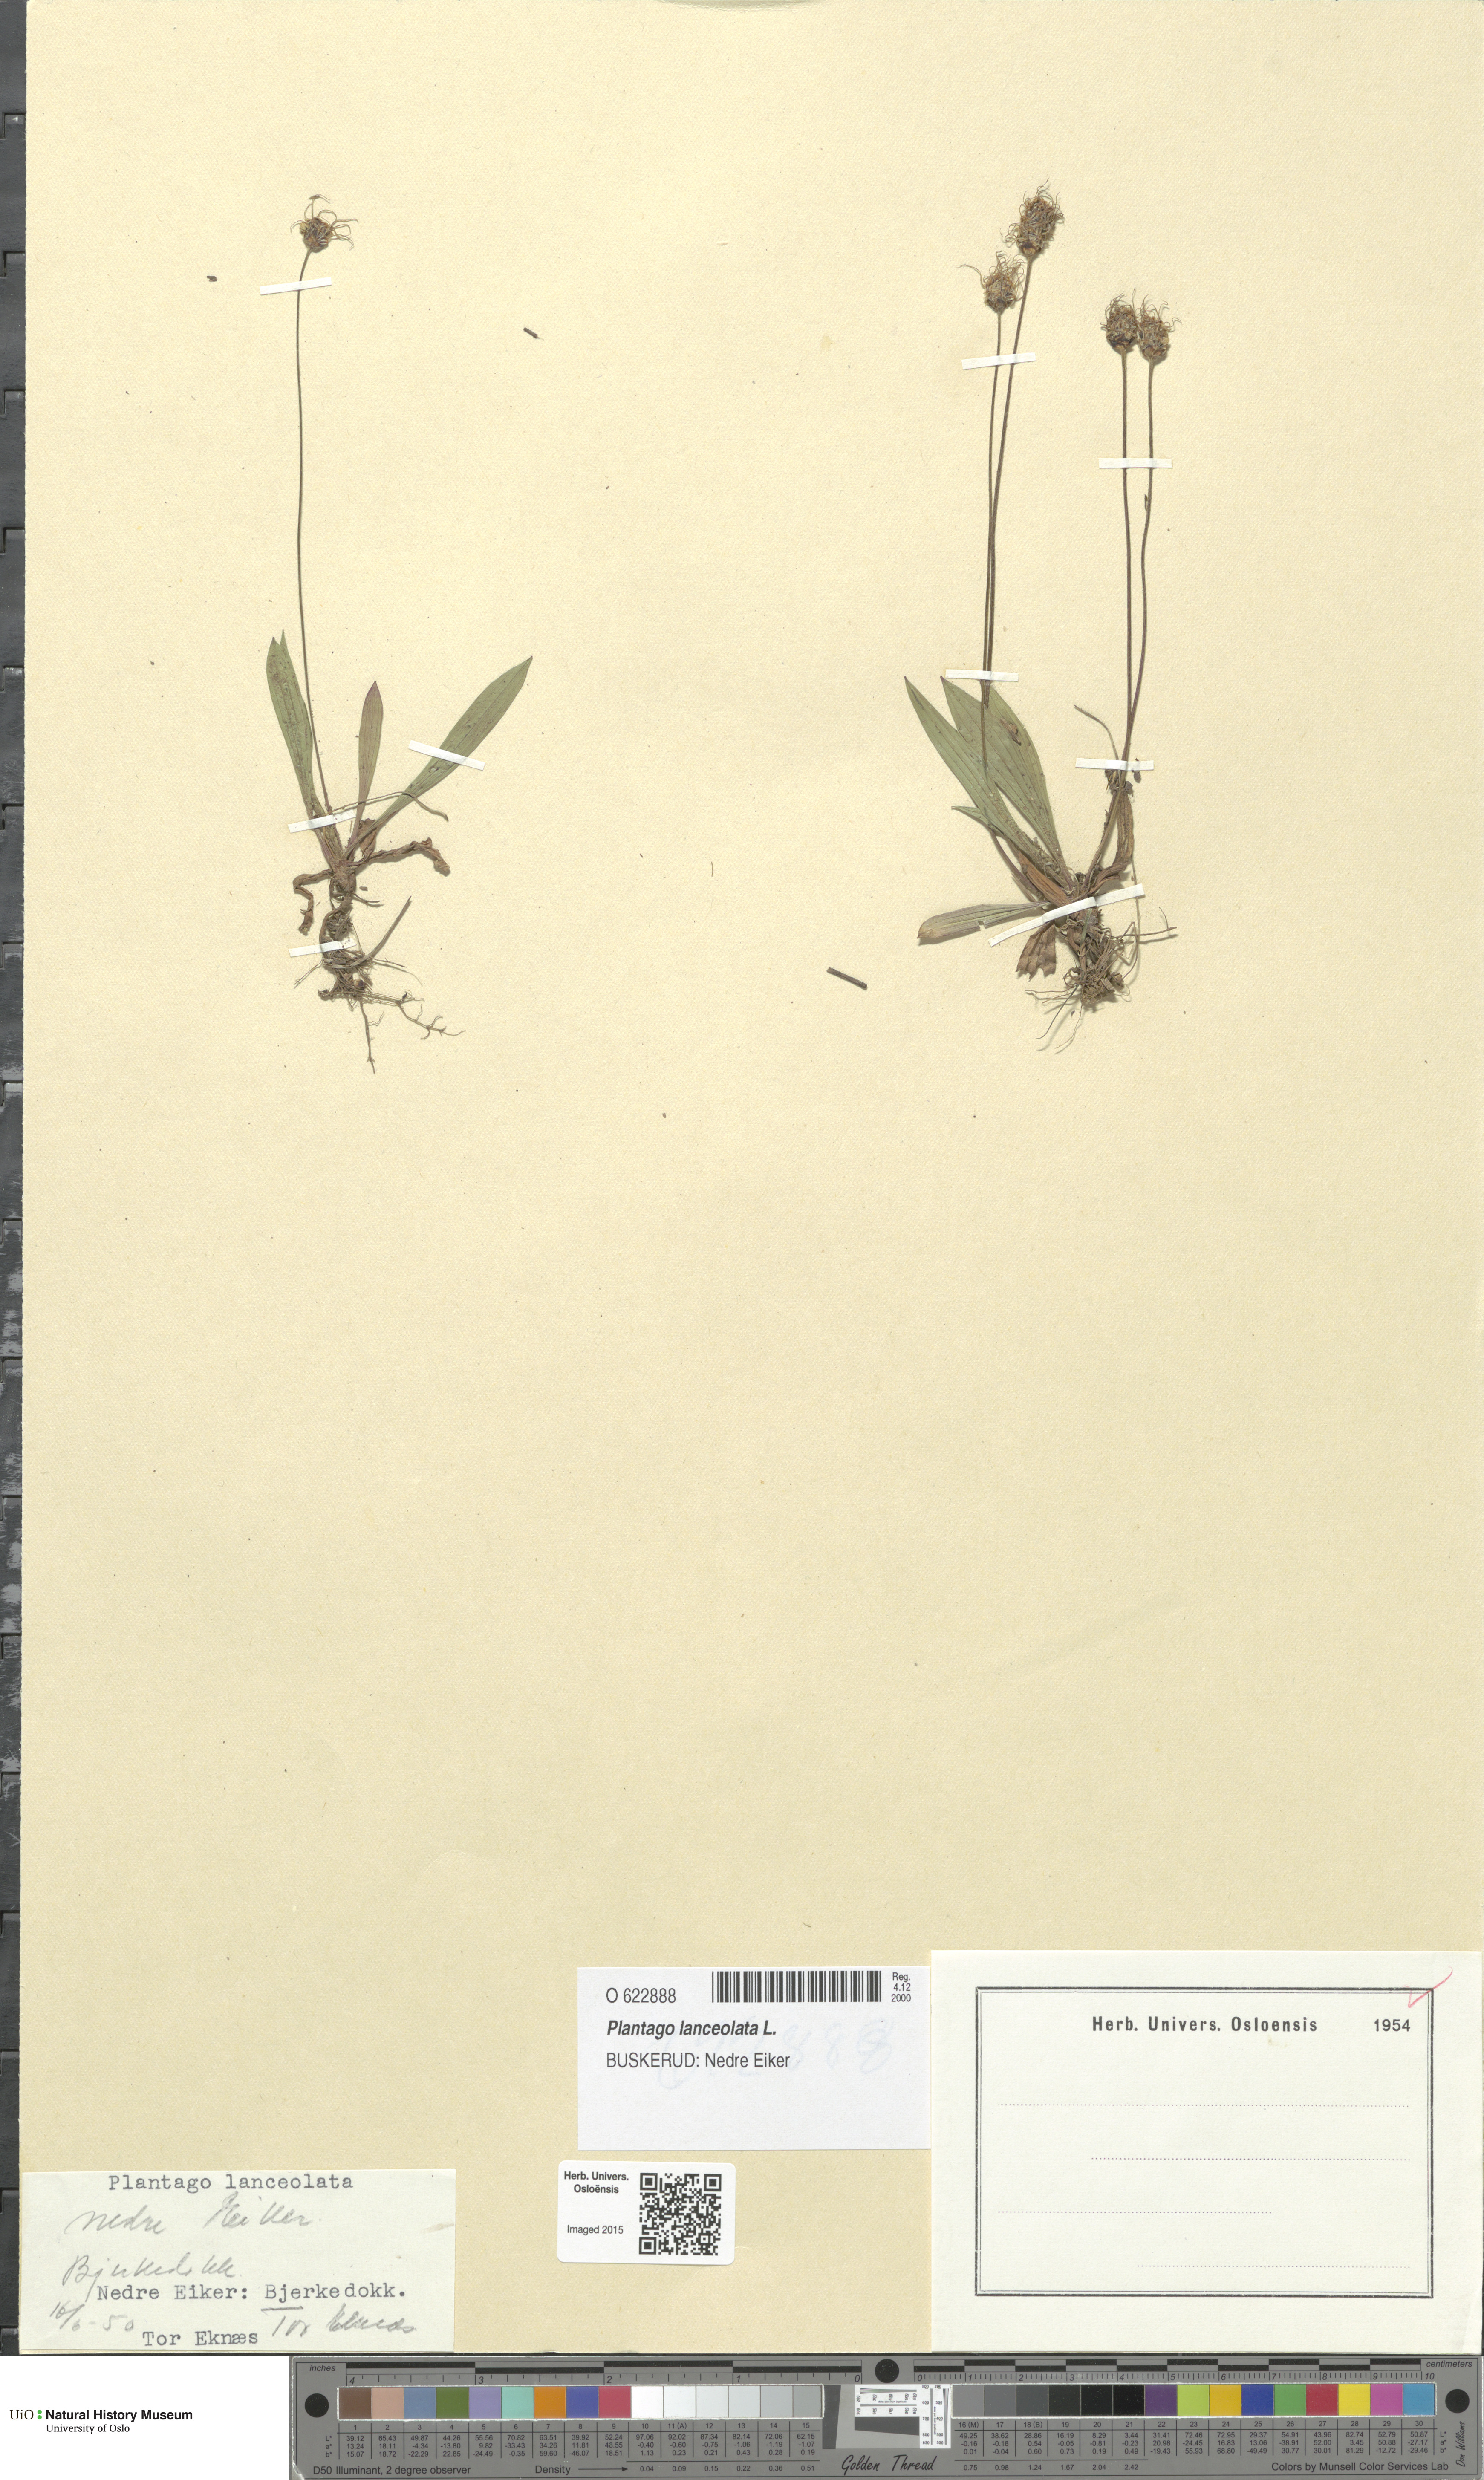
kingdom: Plantae
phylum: Tracheophyta
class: Magnoliopsida
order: Lamiales
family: Plantaginaceae
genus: Plantago
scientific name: Plantago lanceolata
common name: Ribwort plantain
